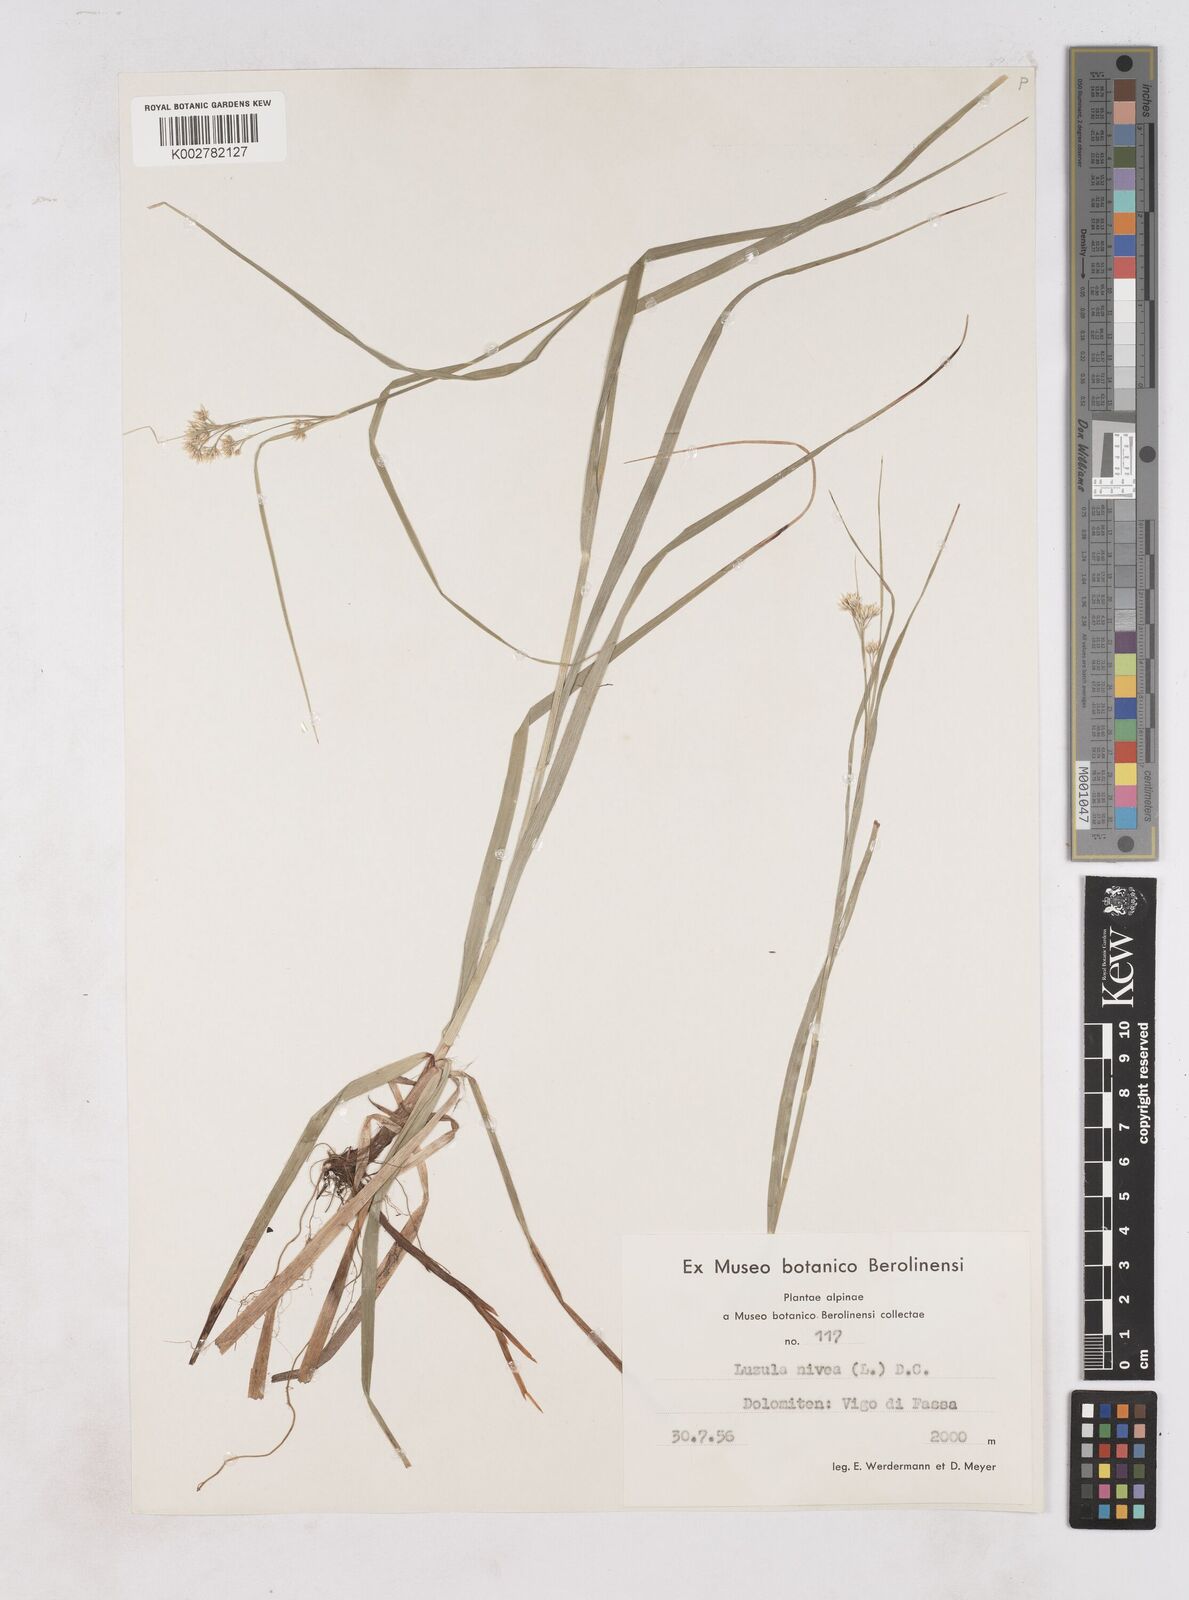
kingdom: Plantae
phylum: Tracheophyta
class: Liliopsida
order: Poales
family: Juncaceae
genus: Luzula
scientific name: Luzula nivea
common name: Snow-white wood-rush
